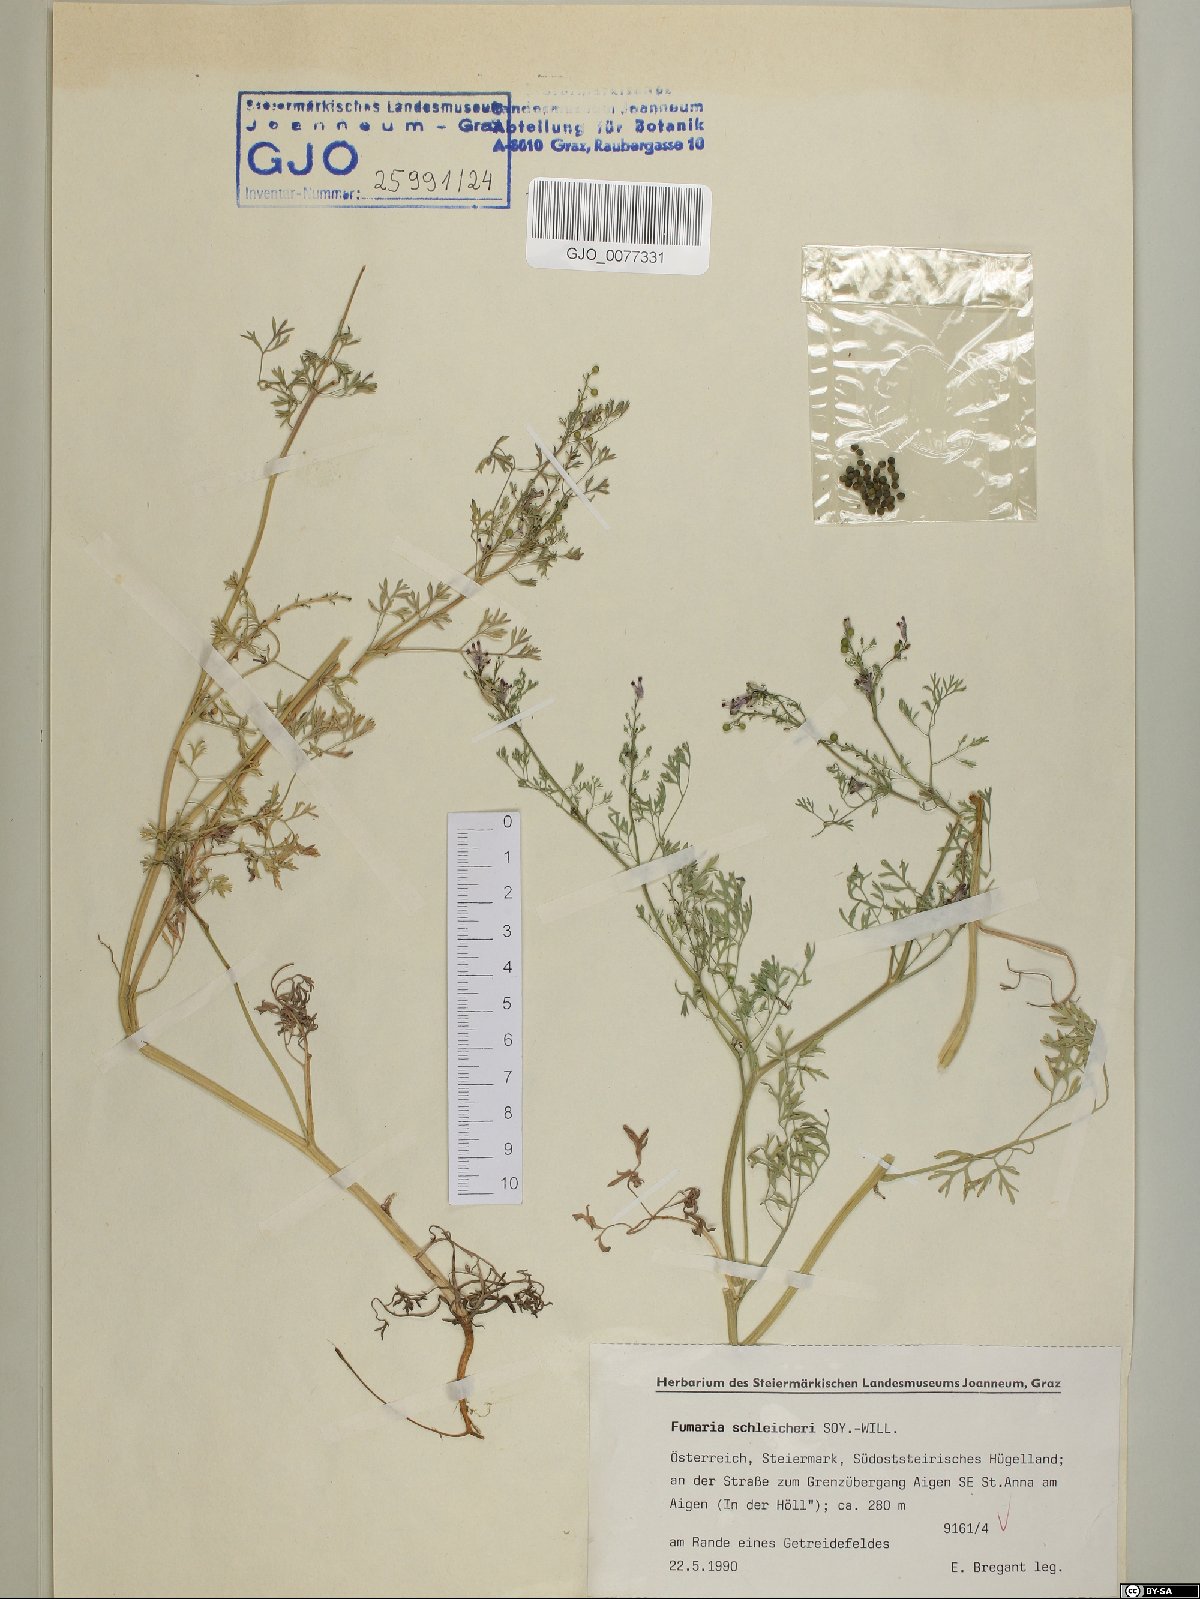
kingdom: Plantae
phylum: Tracheophyta
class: Magnoliopsida
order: Ranunculales
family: Papaveraceae
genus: Fumaria
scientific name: Fumaria schleicheri
